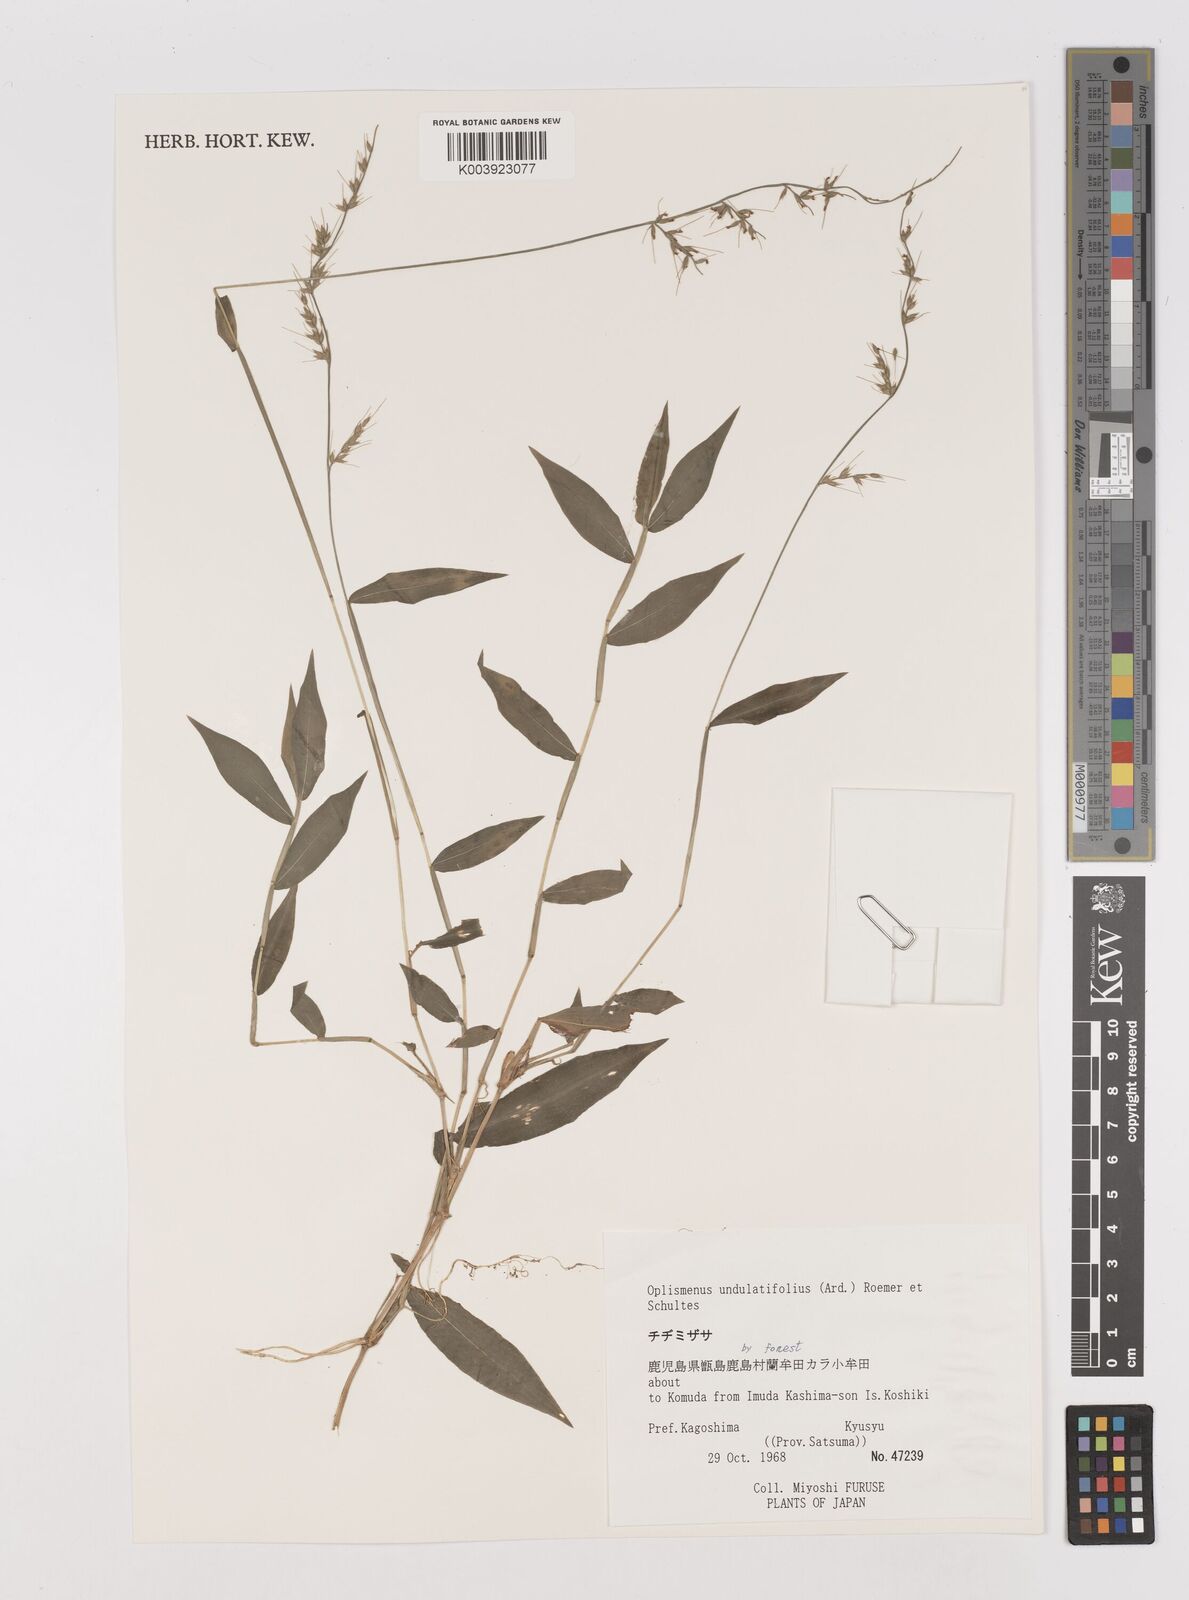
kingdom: Plantae
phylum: Tracheophyta
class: Liliopsida
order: Poales
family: Poaceae
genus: Oplismenus
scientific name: Oplismenus undulatifolius
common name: Wavyleaf basketgrass
